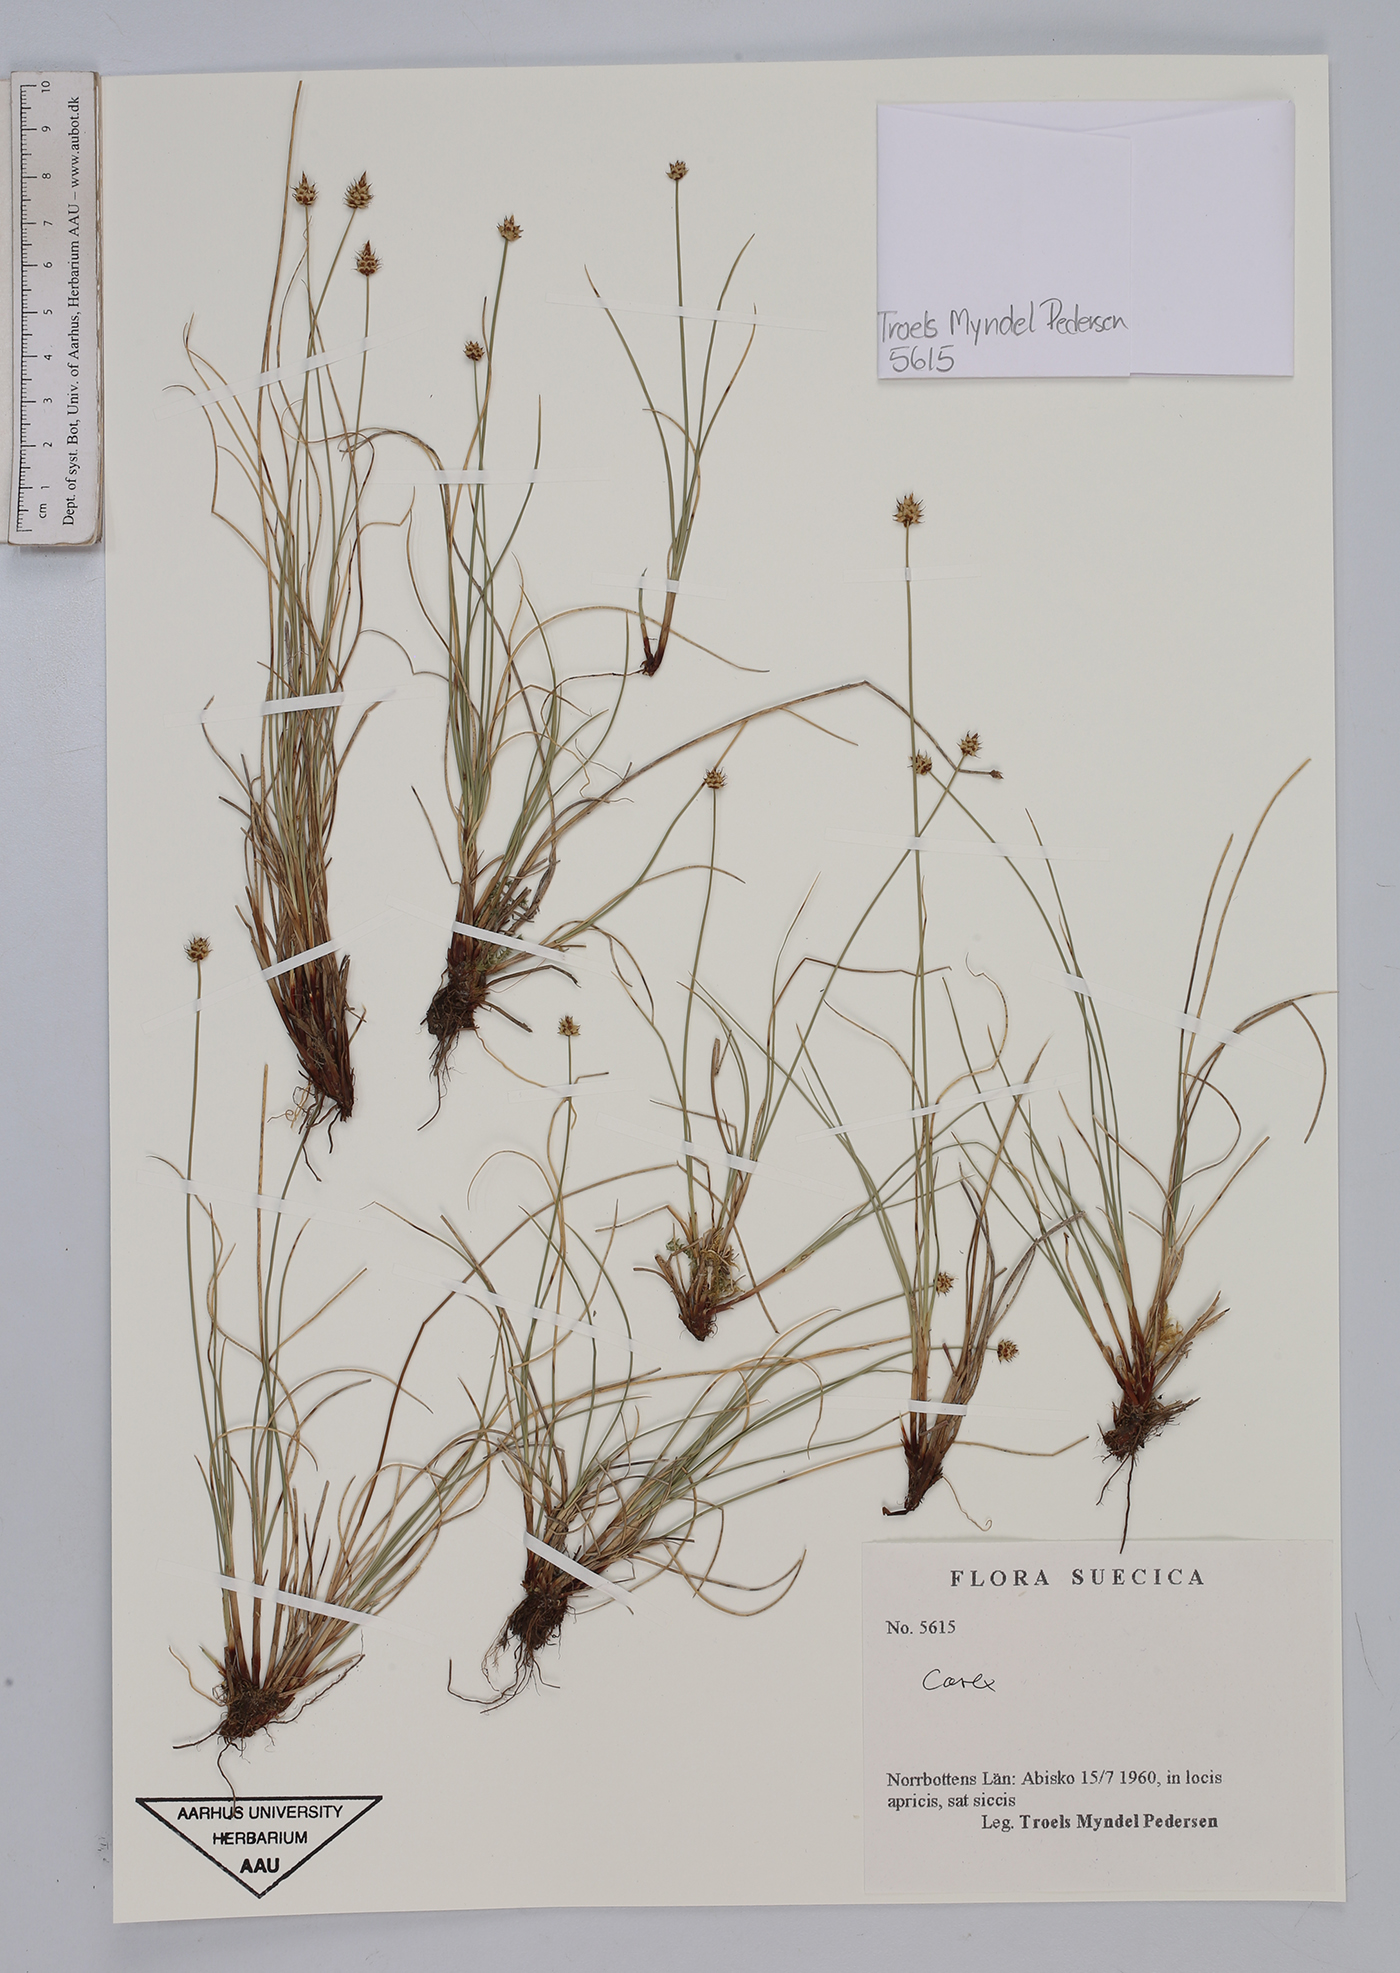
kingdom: Plantae
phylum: Tracheophyta
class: Liliopsida
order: Poales
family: Cyperaceae
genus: Carex
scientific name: Carex
